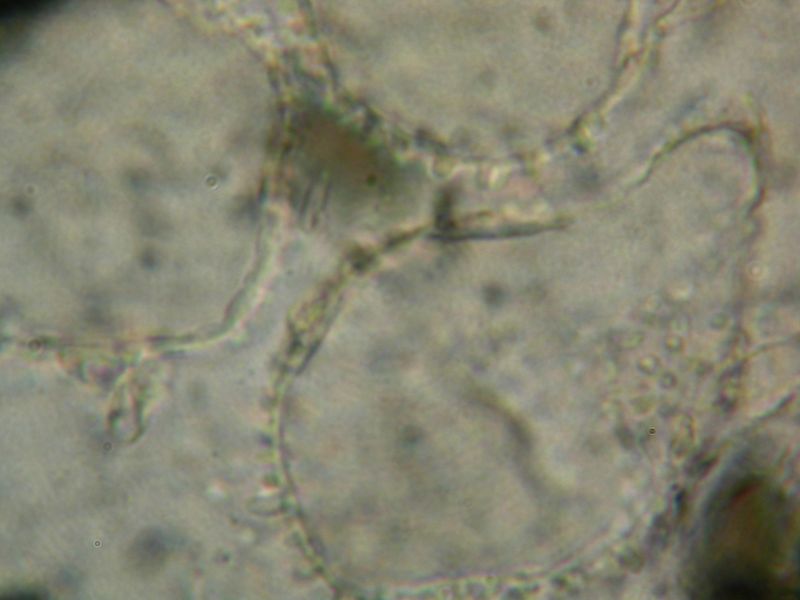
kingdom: Fungi
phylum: Basidiomycota
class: Agaricomycetes
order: Agaricales
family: Psathyrellaceae
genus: Coprinopsis
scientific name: Coprinopsis martinii
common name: rigkær-blækhat
